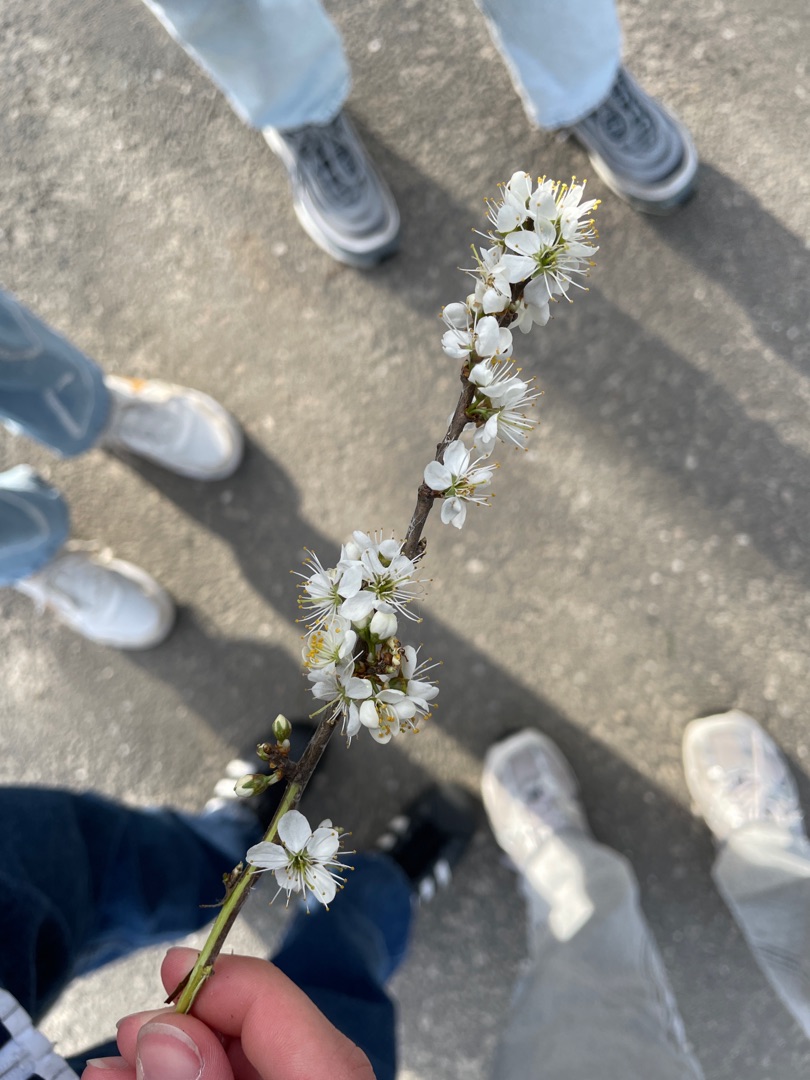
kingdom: Plantae
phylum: Tracheophyta
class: Magnoliopsida
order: Rosales
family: Rosaceae
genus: Prunus
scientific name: Prunus spinosa
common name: Slåen
